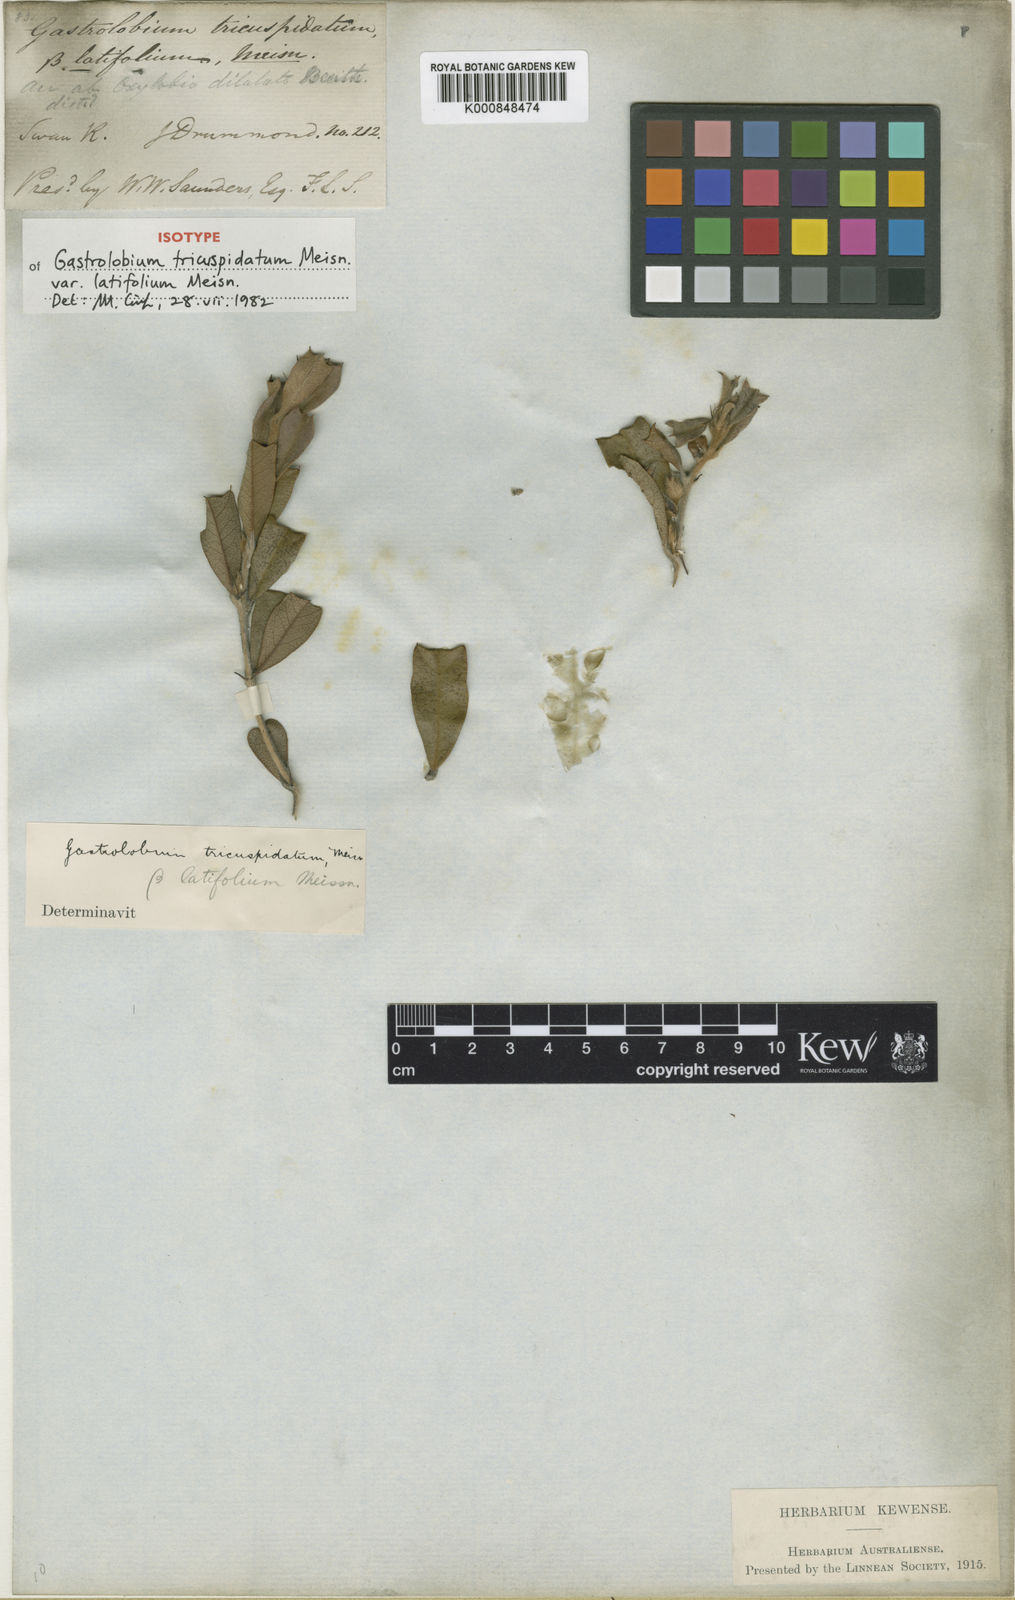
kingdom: Plantae
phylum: Tracheophyta
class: Magnoliopsida
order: Fabales
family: Fabaceae
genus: Gastrolobium
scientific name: Gastrolobium tricuspidatum
